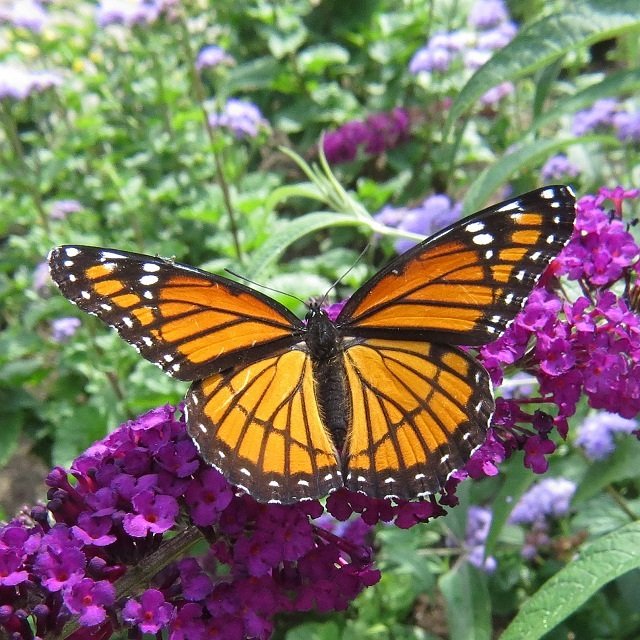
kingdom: Animalia
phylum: Arthropoda
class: Insecta
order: Lepidoptera
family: Nymphalidae
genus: Limenitis
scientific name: Limenitis archippus
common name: Viceroy
